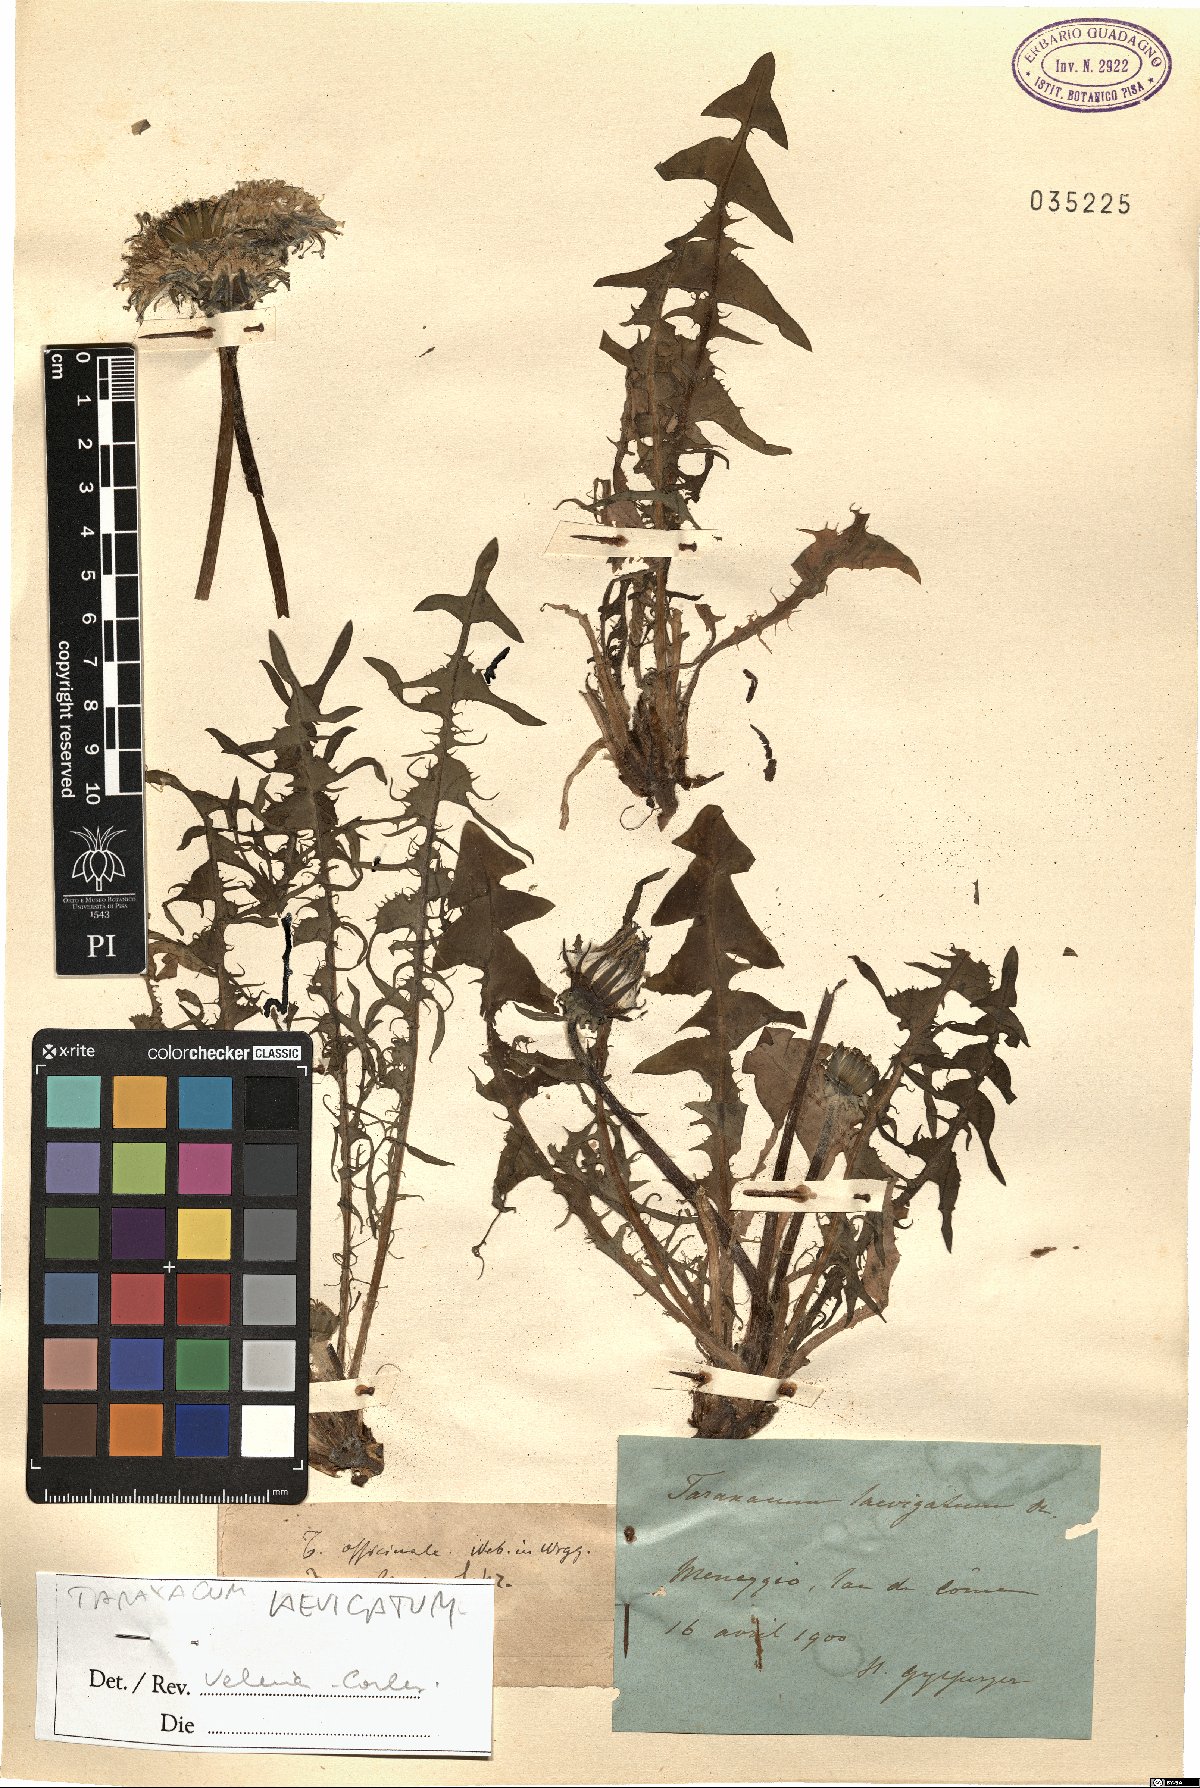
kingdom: Plantae
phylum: Tracheophyta
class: Magnoliopsida
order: Asterales
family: Asteraceae
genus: Taraxacum
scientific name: Taraxacum erythrospermum
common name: Rock dandelion
